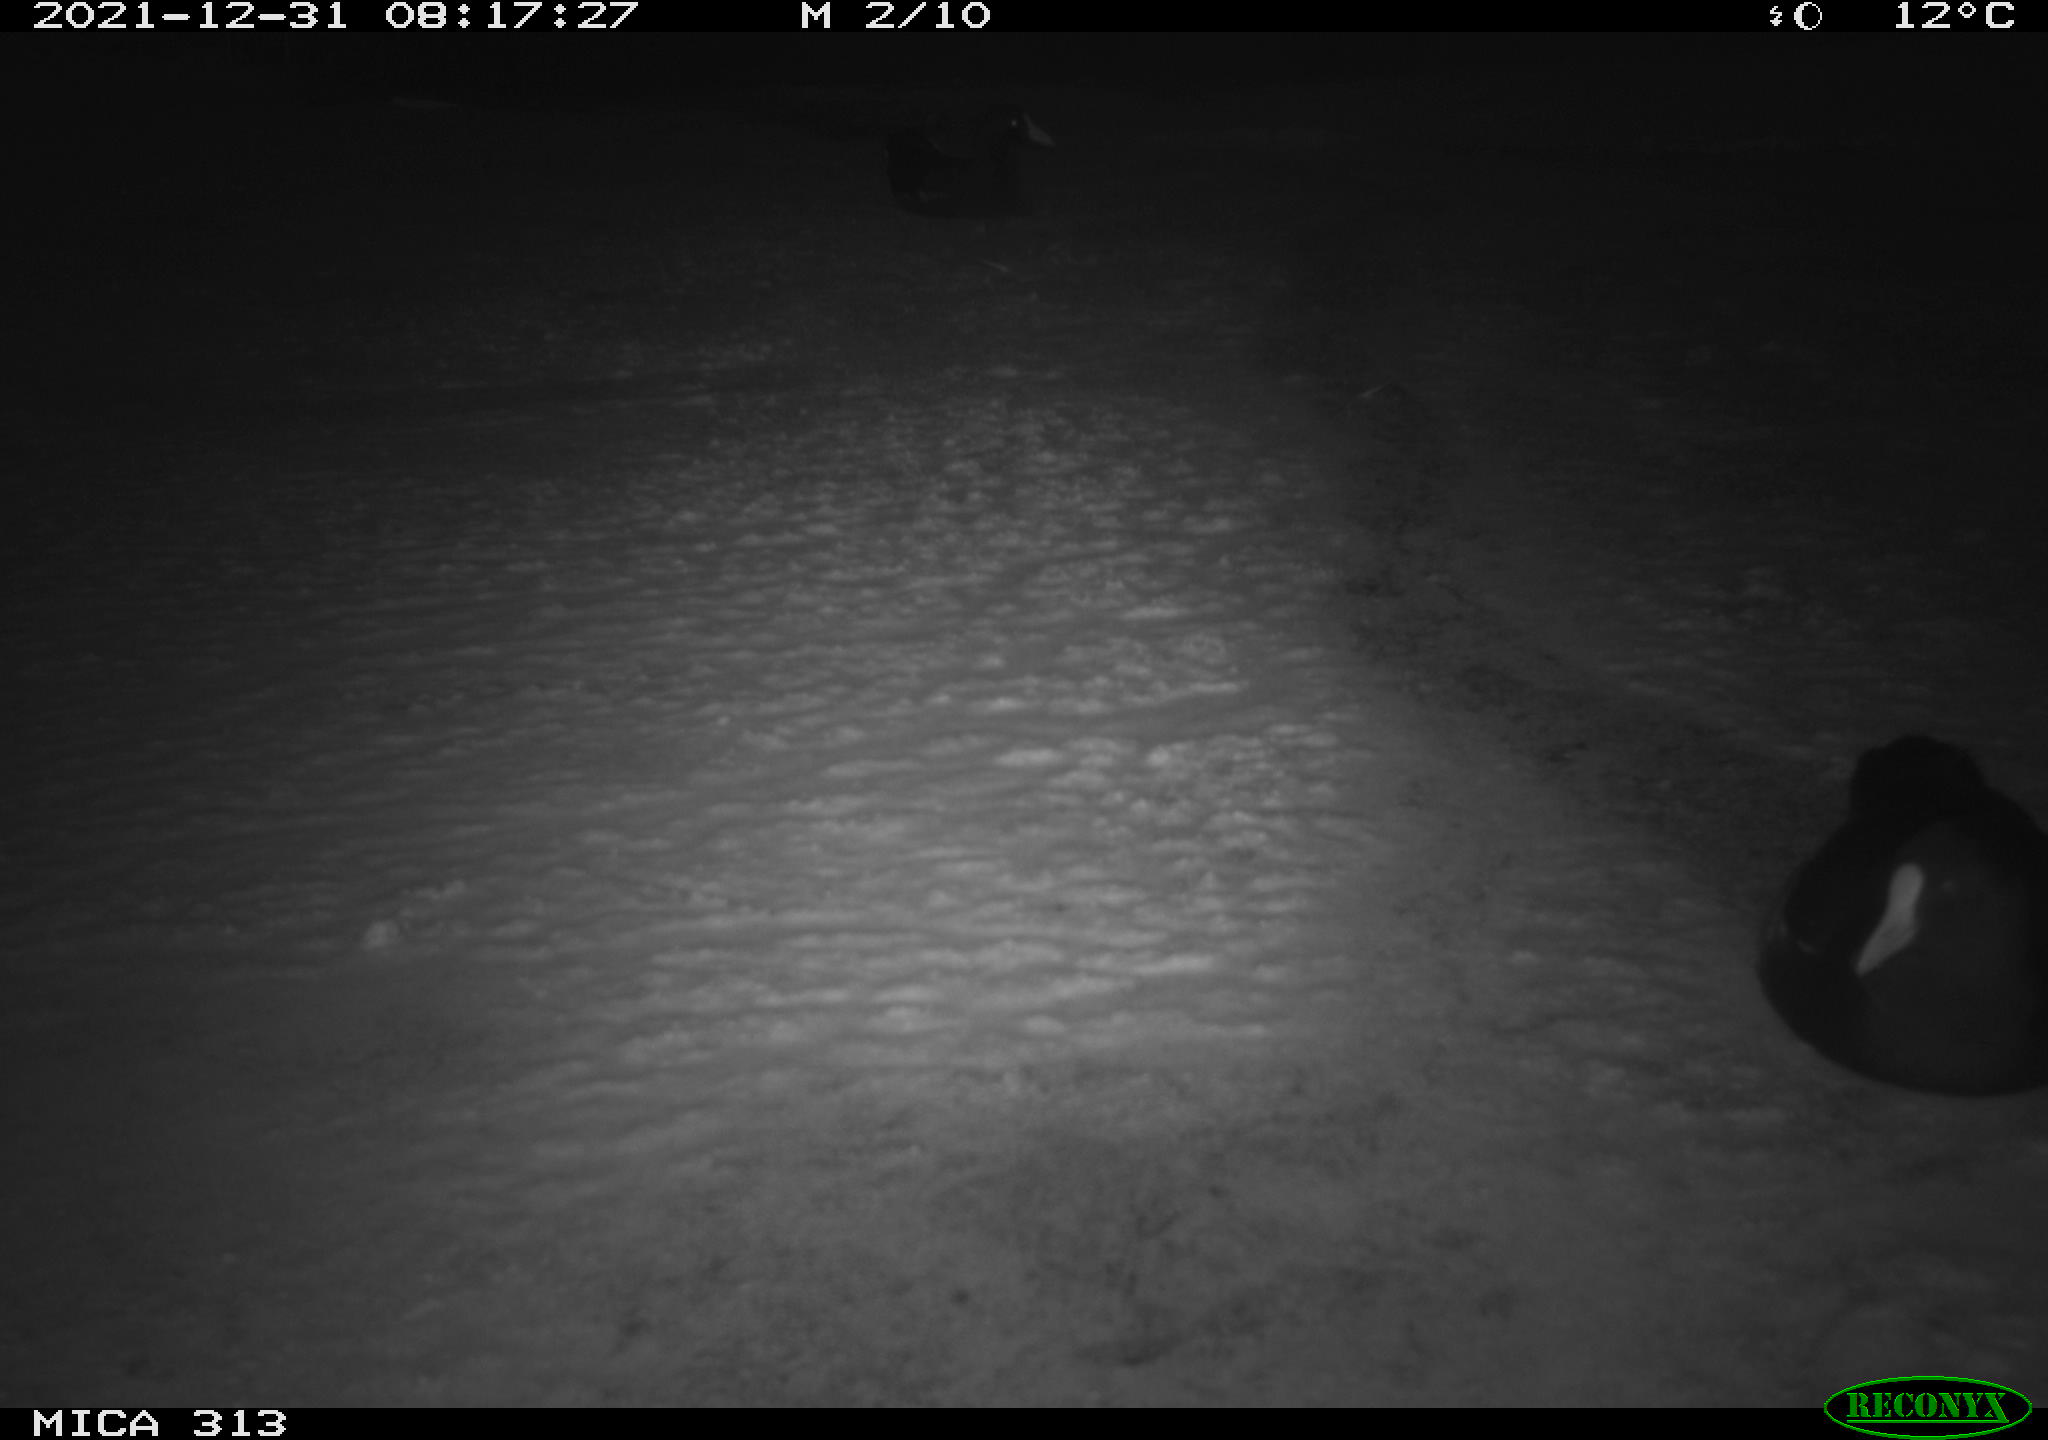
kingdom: Animalia
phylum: Chordata
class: Aves
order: Gruiformes
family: Rallidae
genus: Gallinula
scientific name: Gallinula chloropus
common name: Common moorhen
